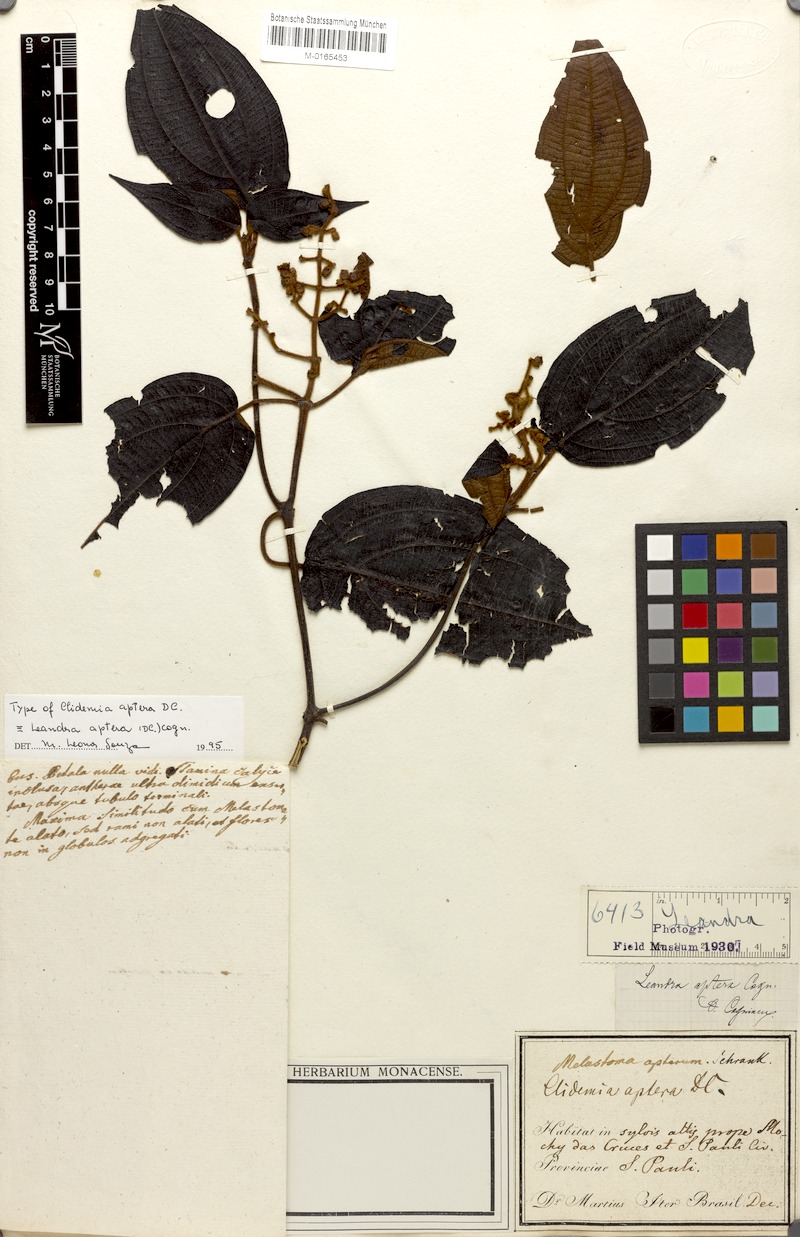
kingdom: Plantae
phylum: Tracheophyta
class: Magnoliopsida
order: Myrtales
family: Melastomataceae
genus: Miconia
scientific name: Miconia aptera
